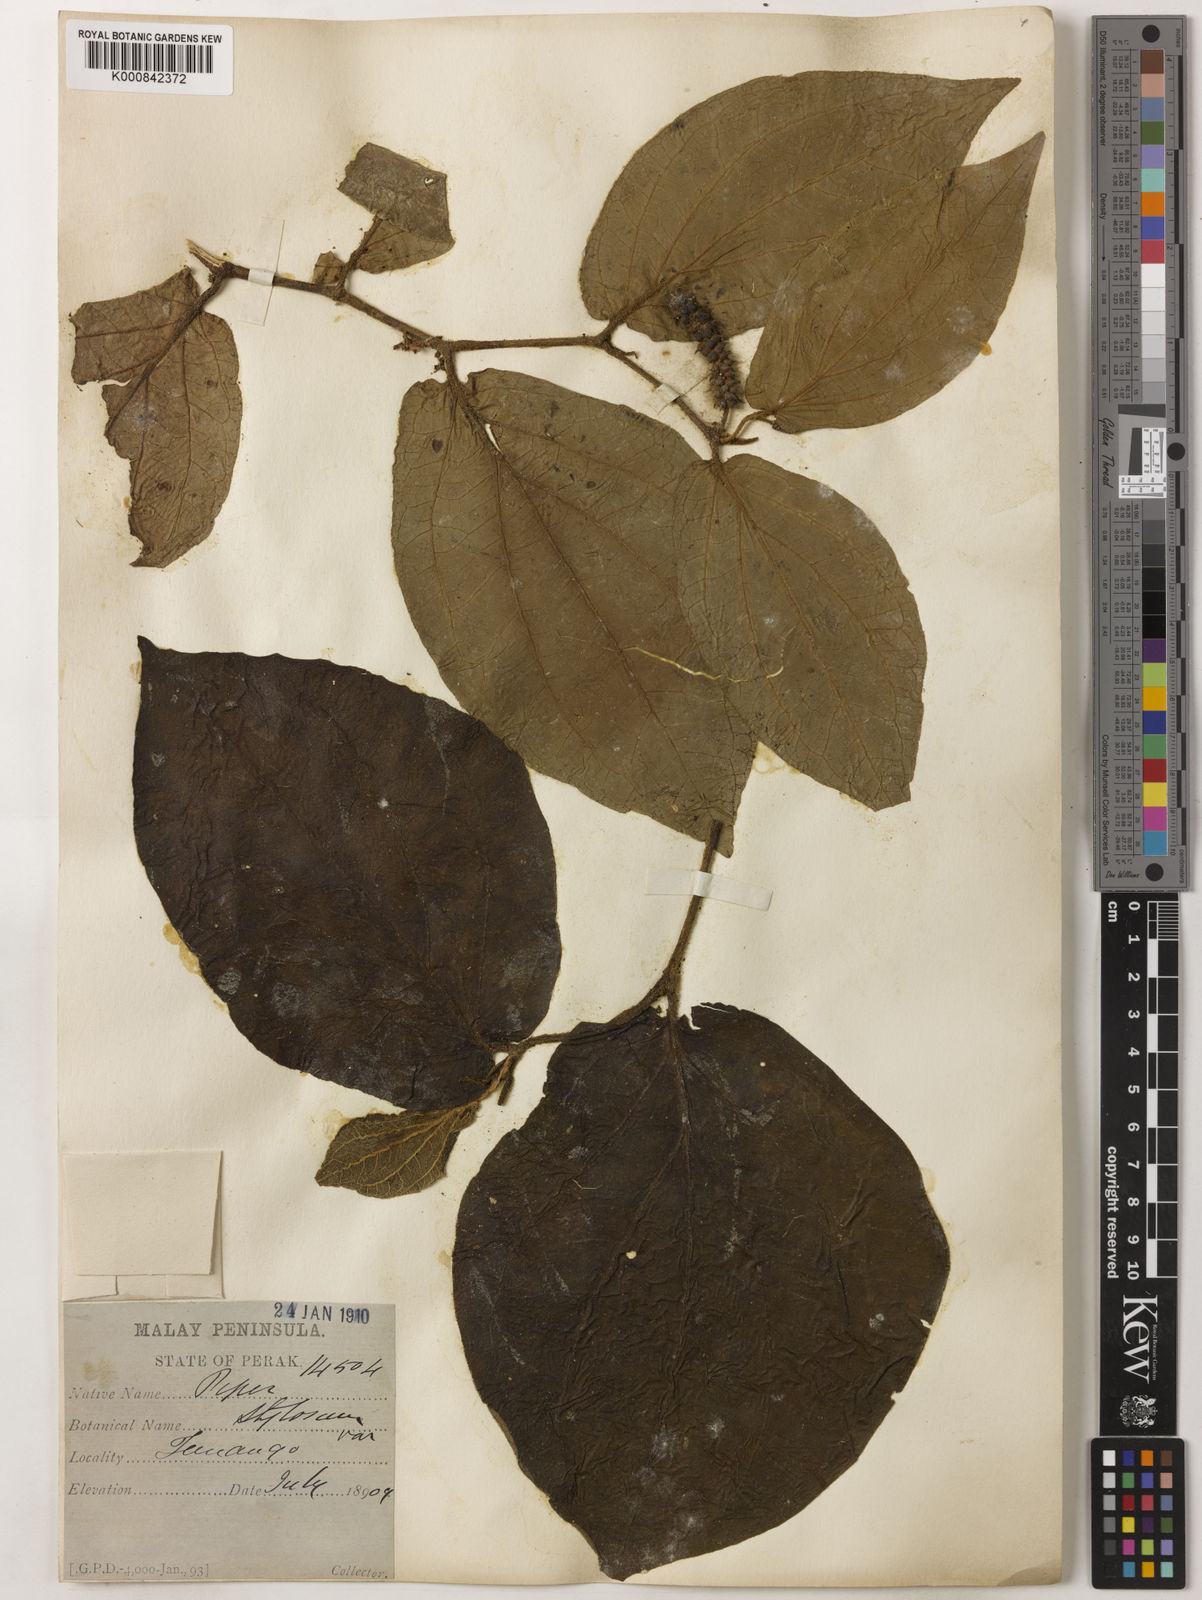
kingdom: Plantae
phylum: Tracheophyta
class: Magnoliopsida
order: Piperales
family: Piperaceae
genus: Piper
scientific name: Piper rostratum
